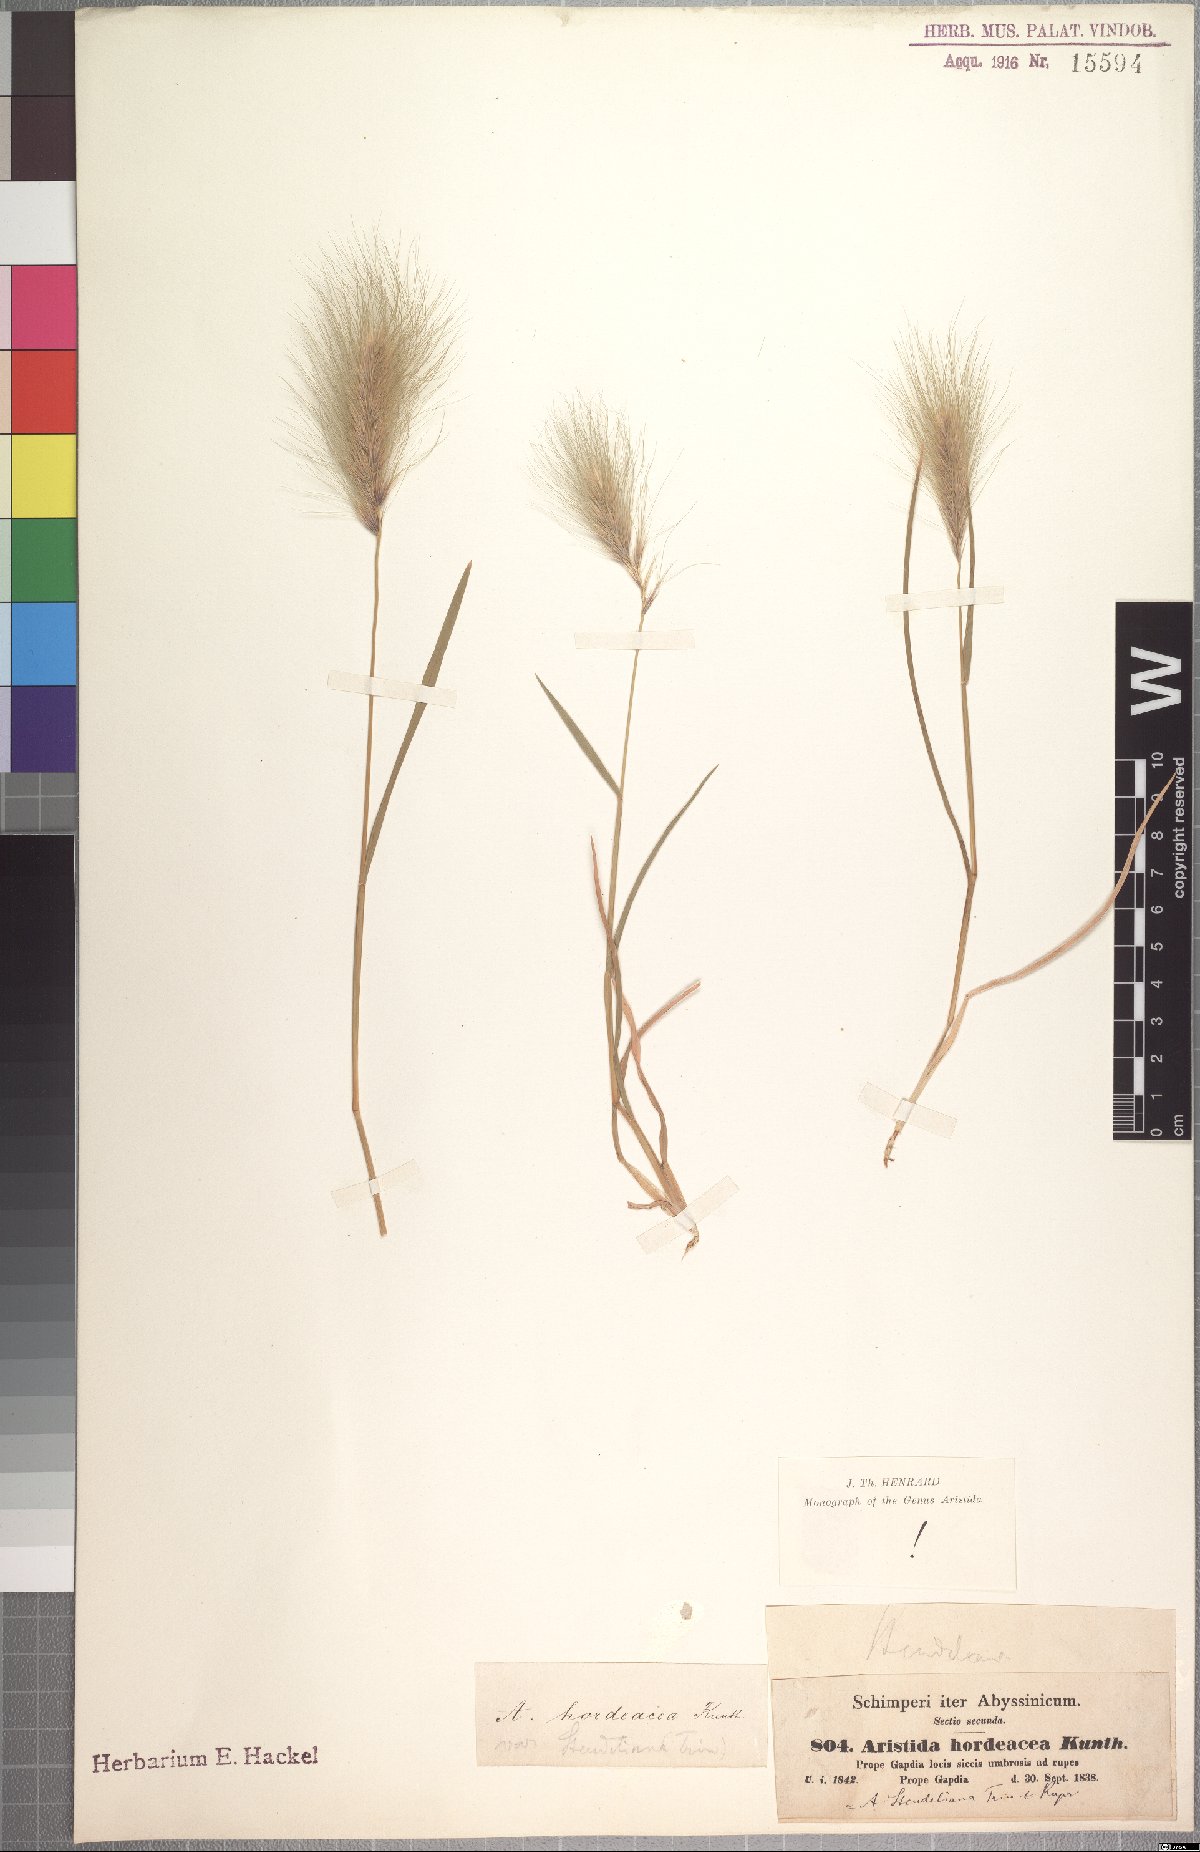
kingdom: Plantae
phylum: Tracheophyta
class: Liliopsida
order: Poales
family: Poaceae
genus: Aristida
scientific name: Aristida hordeacea
